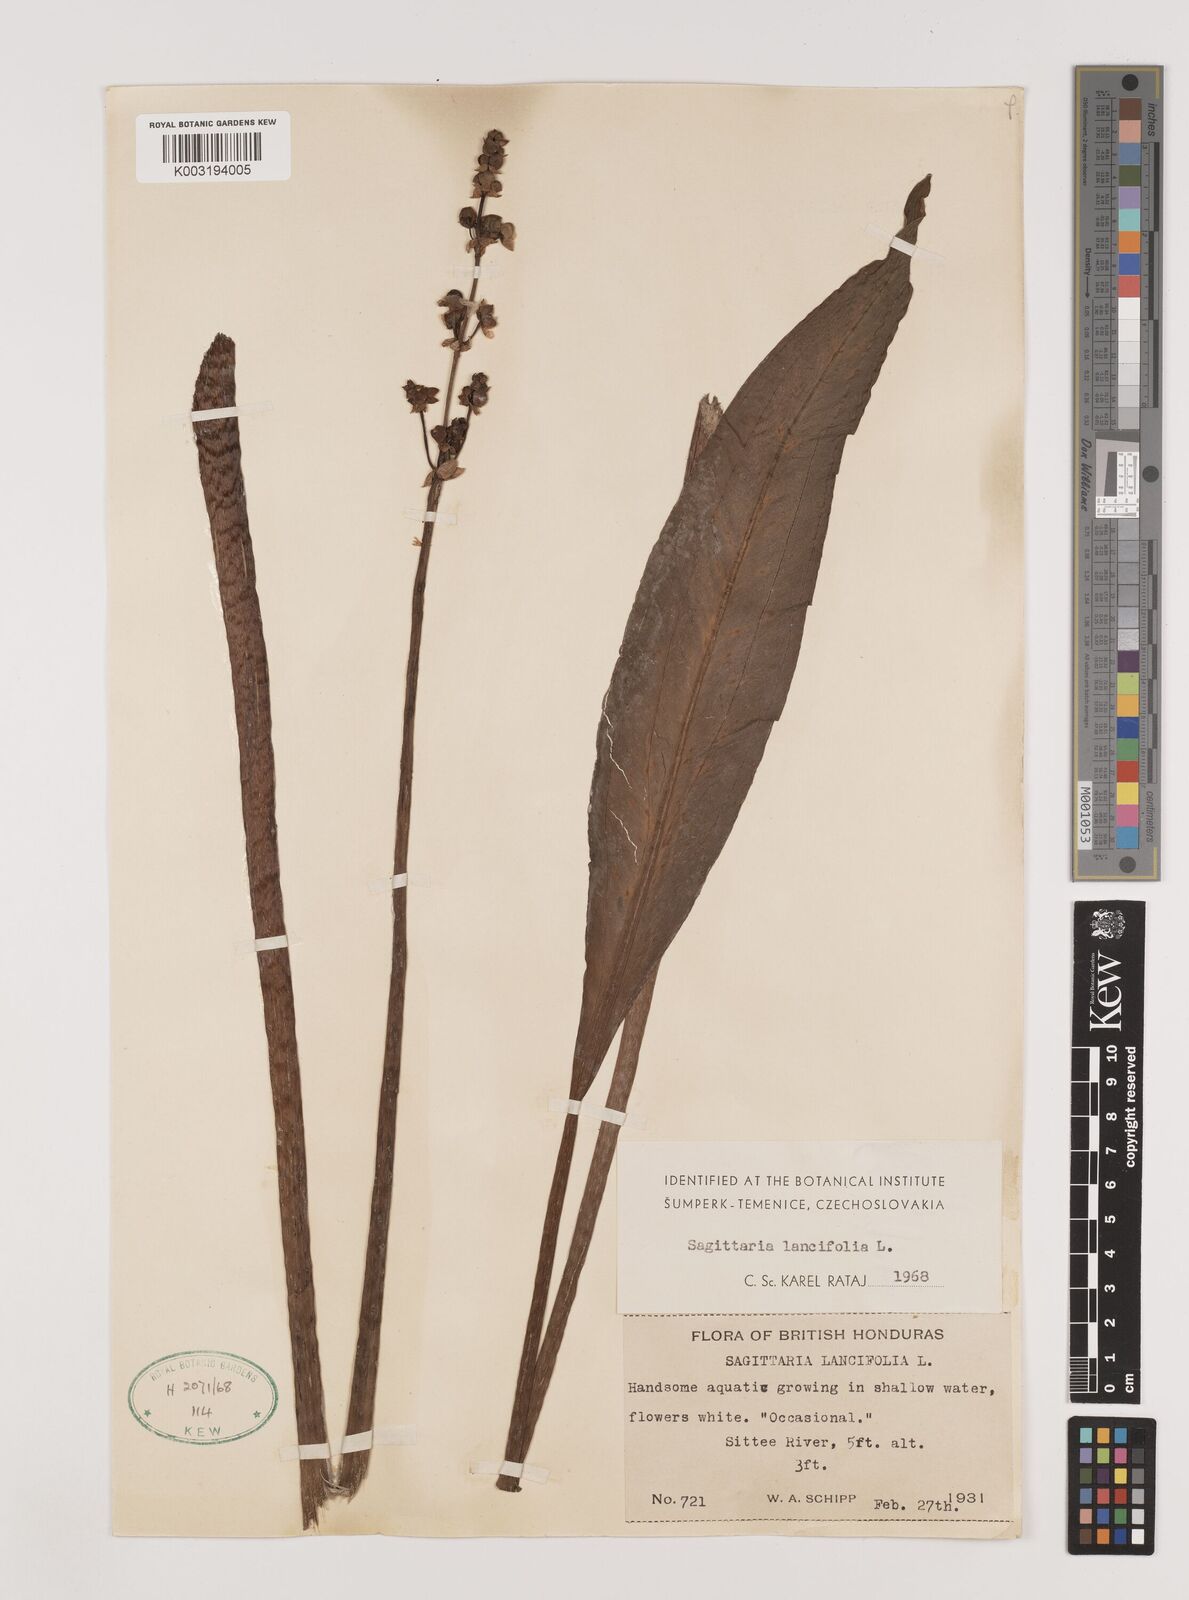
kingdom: Plantae
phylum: Tracheophyta
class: Liliopsida
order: Alismatales
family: Alismataceae
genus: Sagittaria
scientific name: Sagittaria lancifolia
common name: Lance-leaf arrowhead
